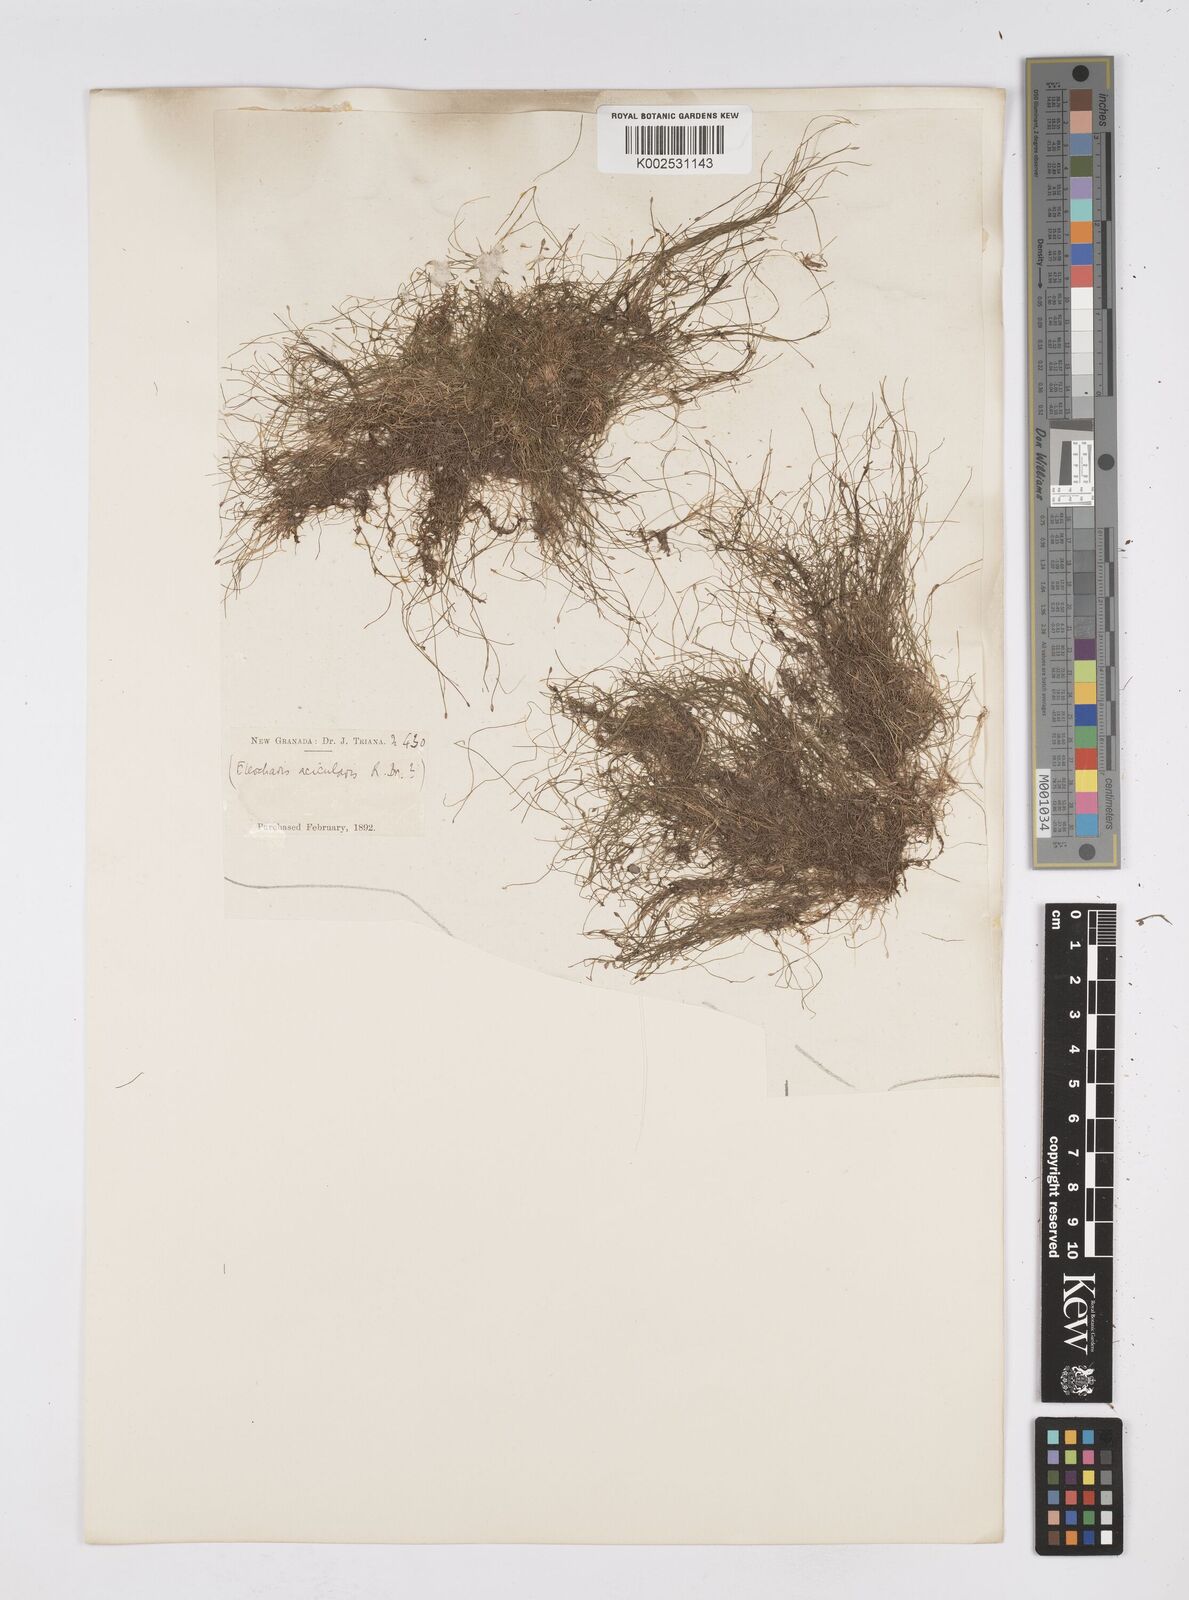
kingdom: Plantae
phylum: Tracheophyta
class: Liliopsida
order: Poales
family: Cyperaceae
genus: Eleocharis
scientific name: Eleocharis acicularis
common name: Needle spike-rush
